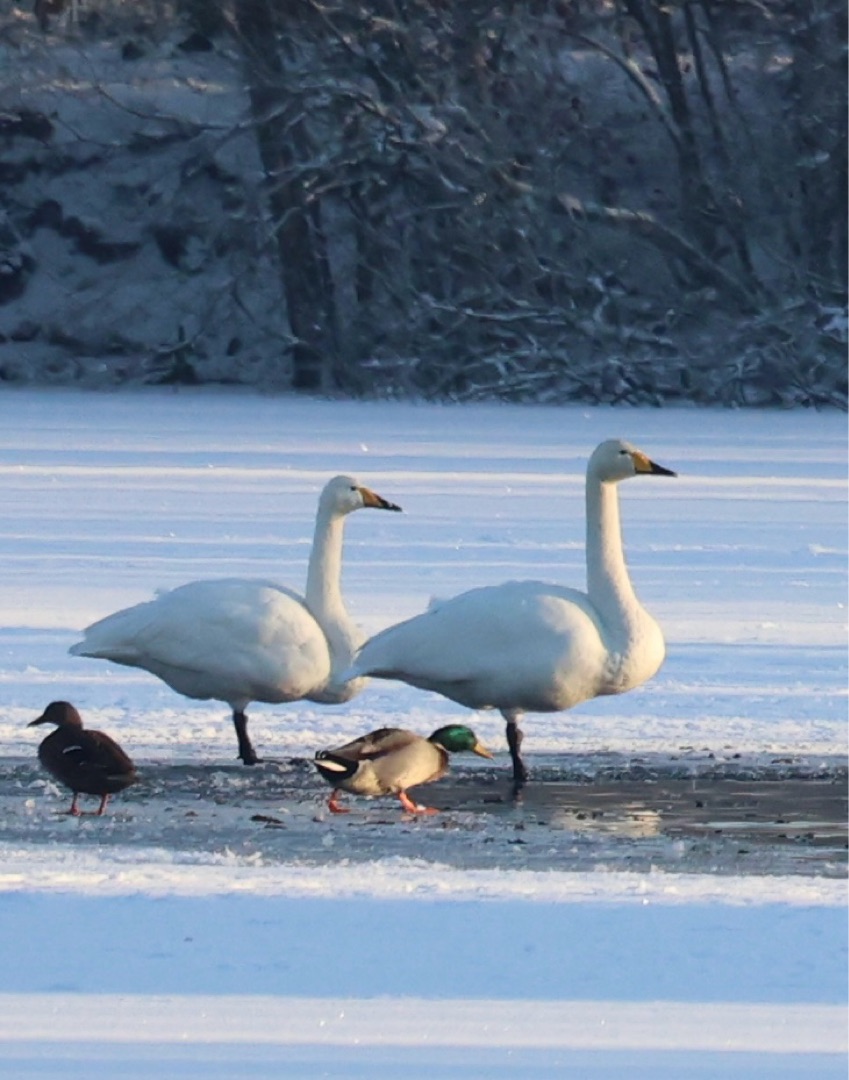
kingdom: Animalia
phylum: Chordata
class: Aves
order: Anseriformes
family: Anatidae
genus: Cygnus
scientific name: Cygnus cygnus
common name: Sangsvane
